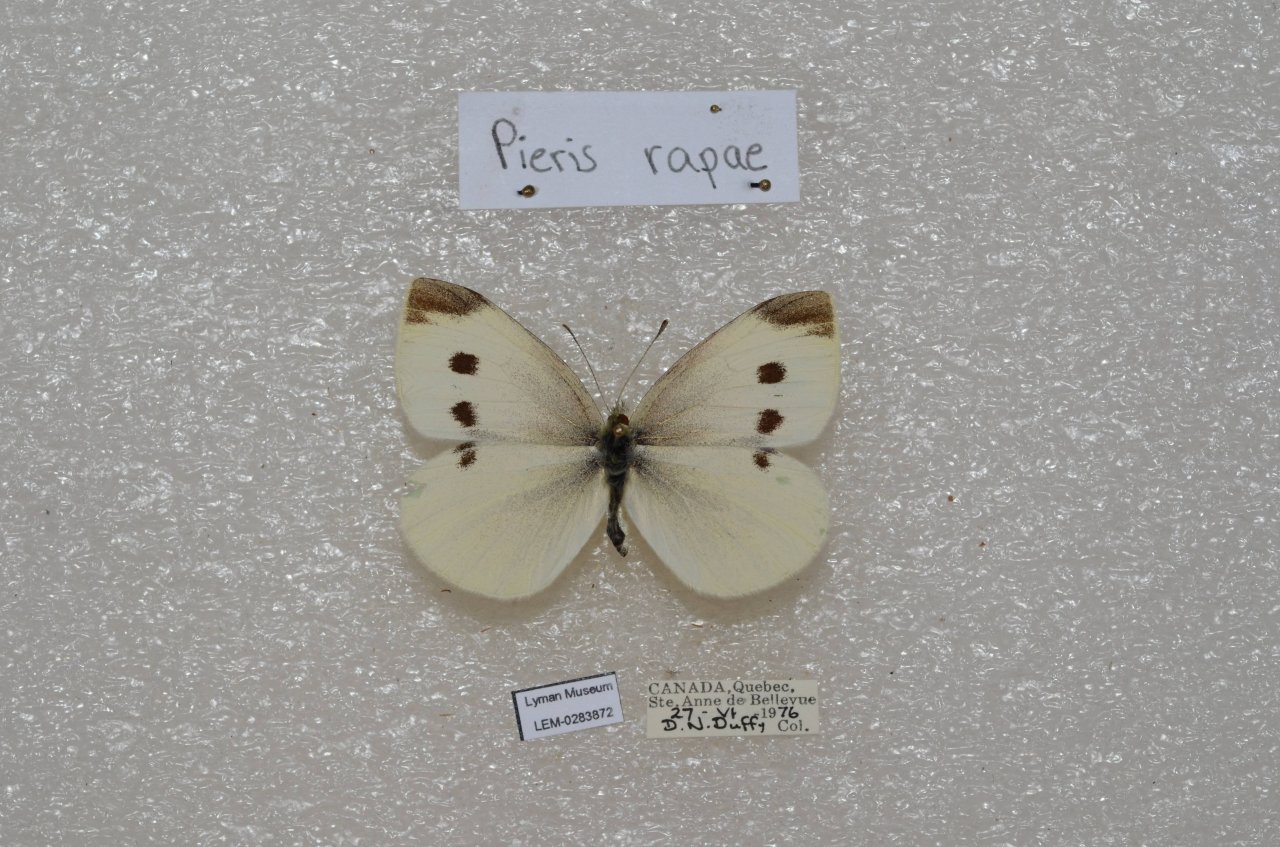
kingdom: Animalia
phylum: Arthropoda
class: Insecta
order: Lepidoptera
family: Pieridae
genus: Pieris
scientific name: Pieris rapae
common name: Cabbage White
